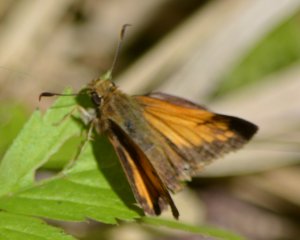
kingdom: Animalia
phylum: Arthropoda
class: Insecta
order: Lepidoptera
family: Hesperiidae
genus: Lon
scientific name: Lon hobomok
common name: Hobomok Skipper
